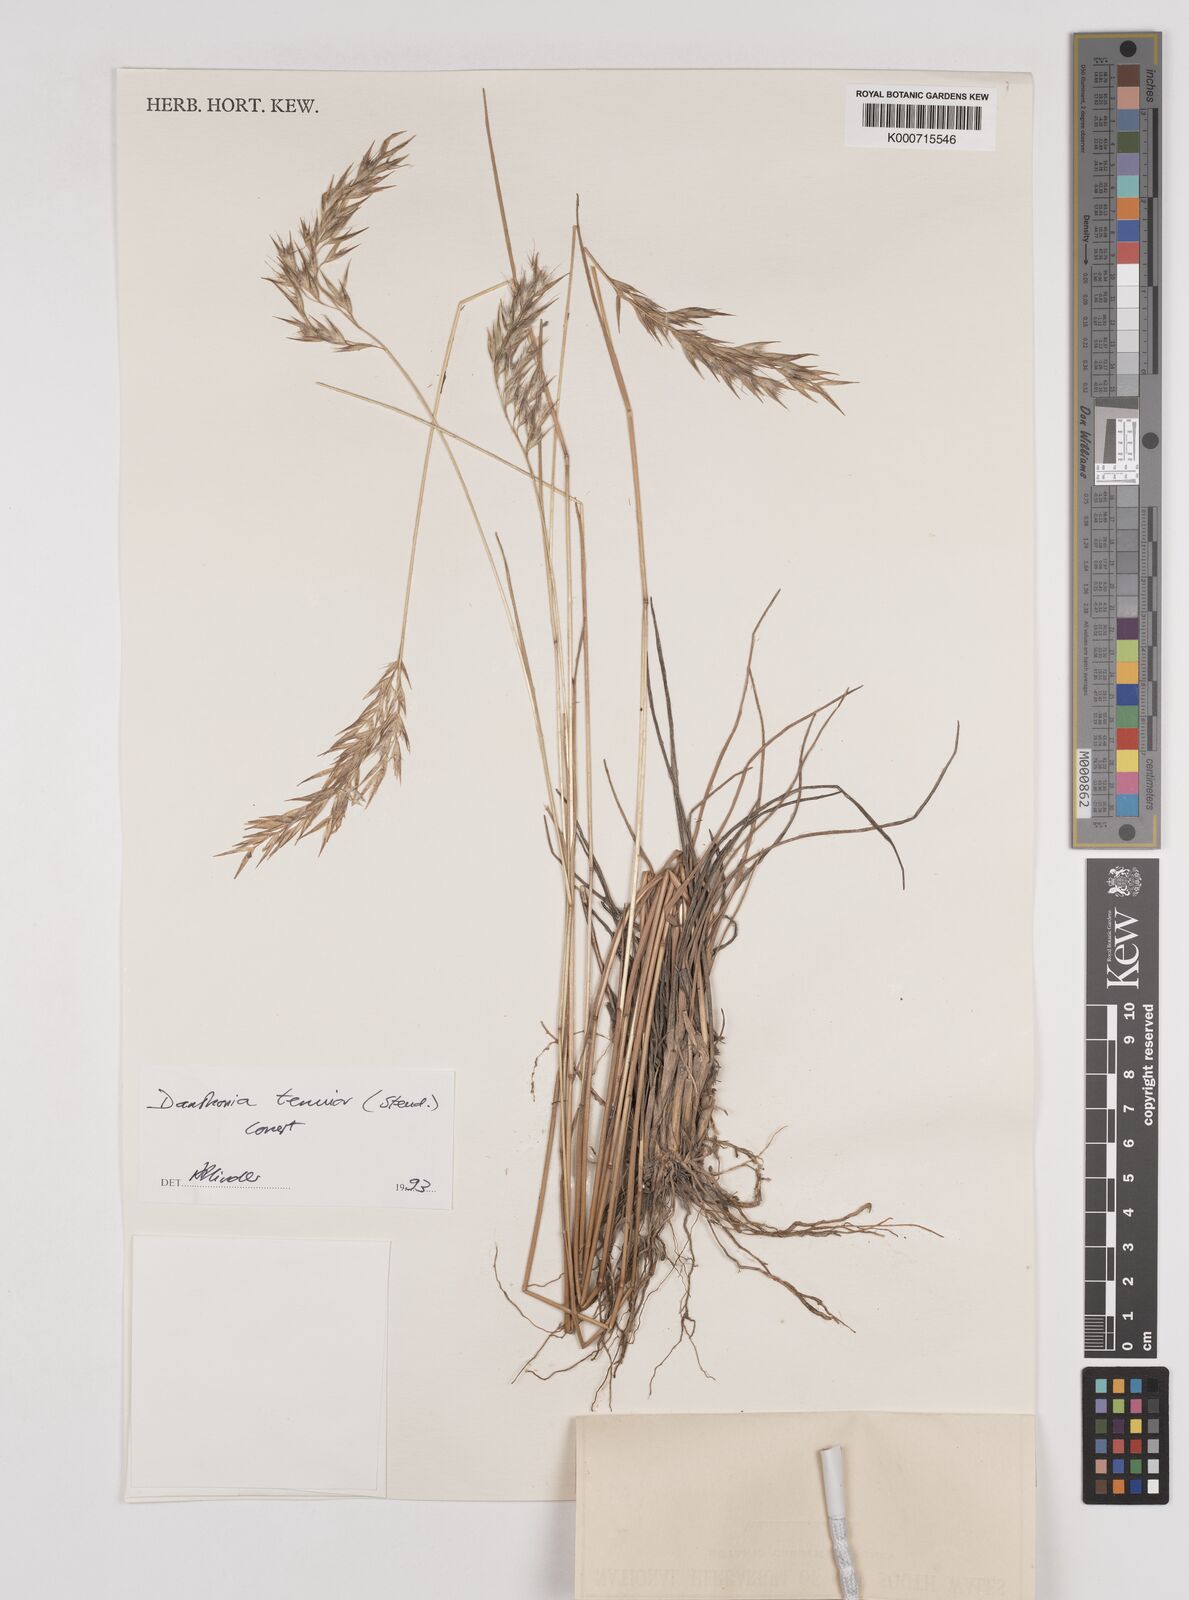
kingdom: Plantae
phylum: Tracheophyta
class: Liliopsida
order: Poales
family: Poaceae
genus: Rytidosperma
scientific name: Rytidosperma tenuius
